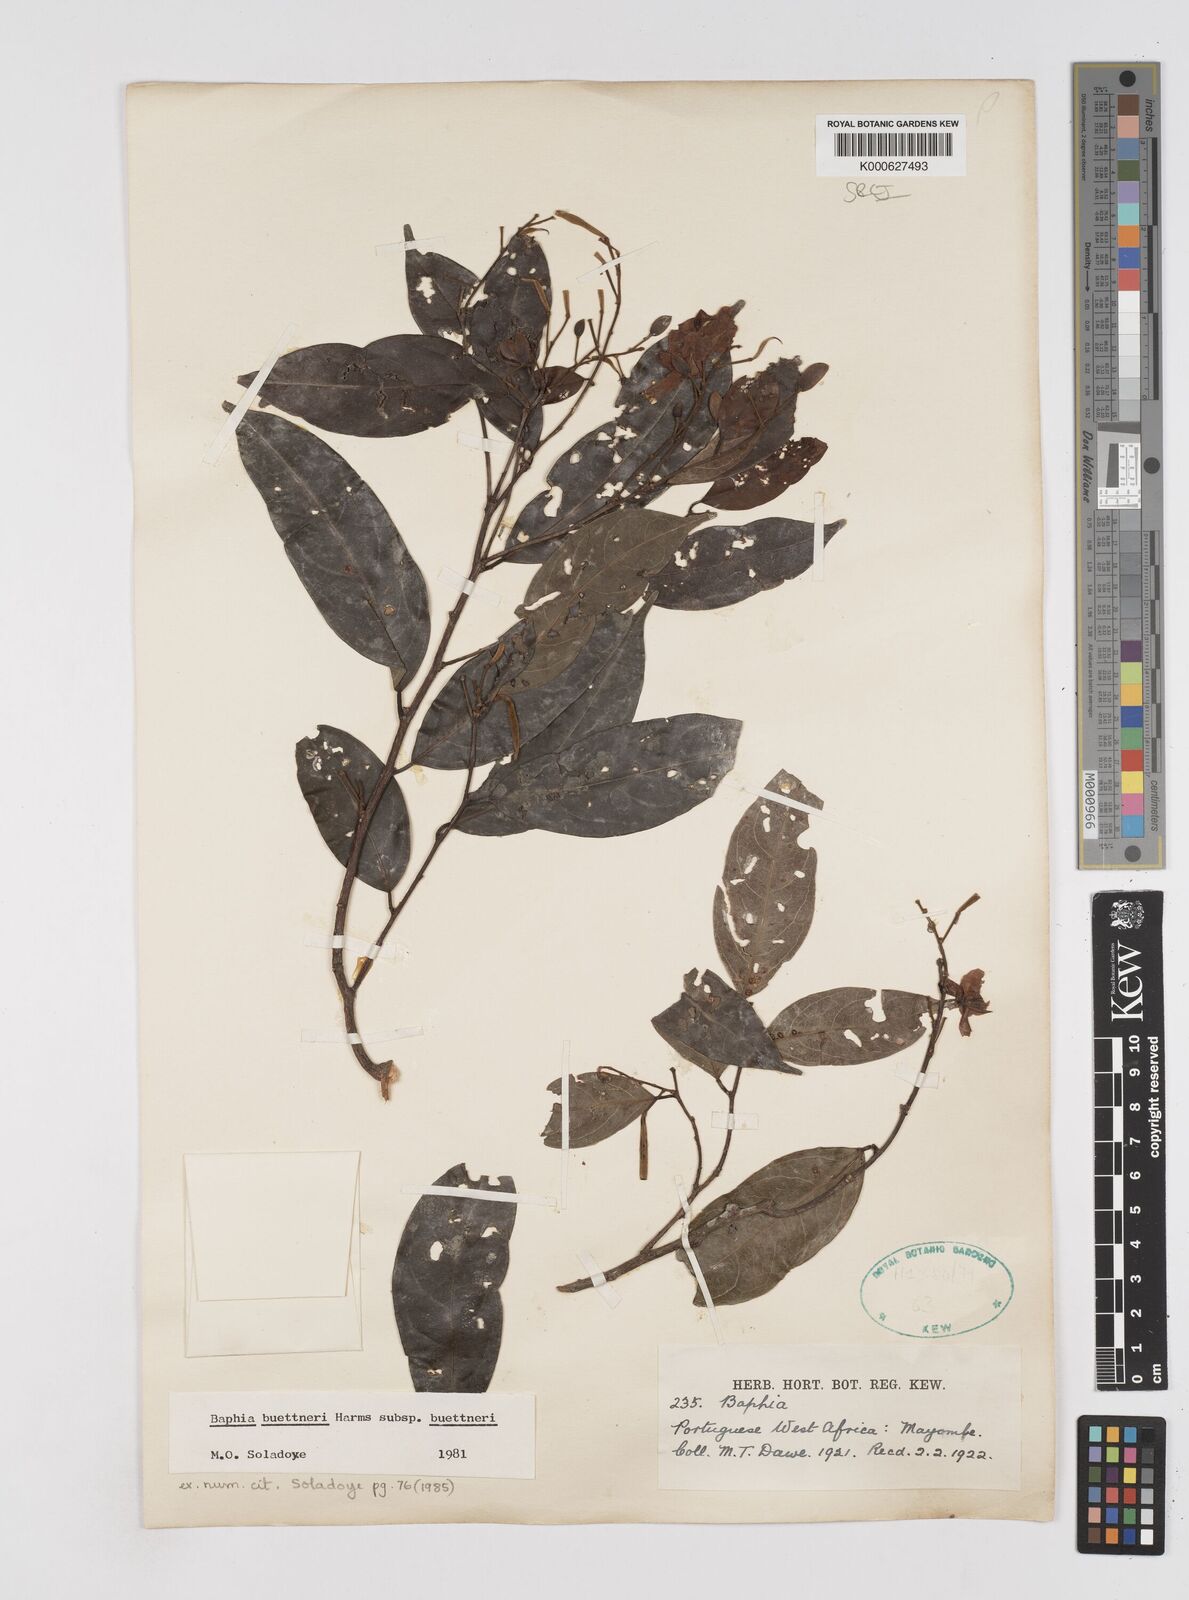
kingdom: Plantae
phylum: Tracheophyta
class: Magnoliopsida
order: Fabales
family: Fabaceae
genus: Baphia
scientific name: Baphia
